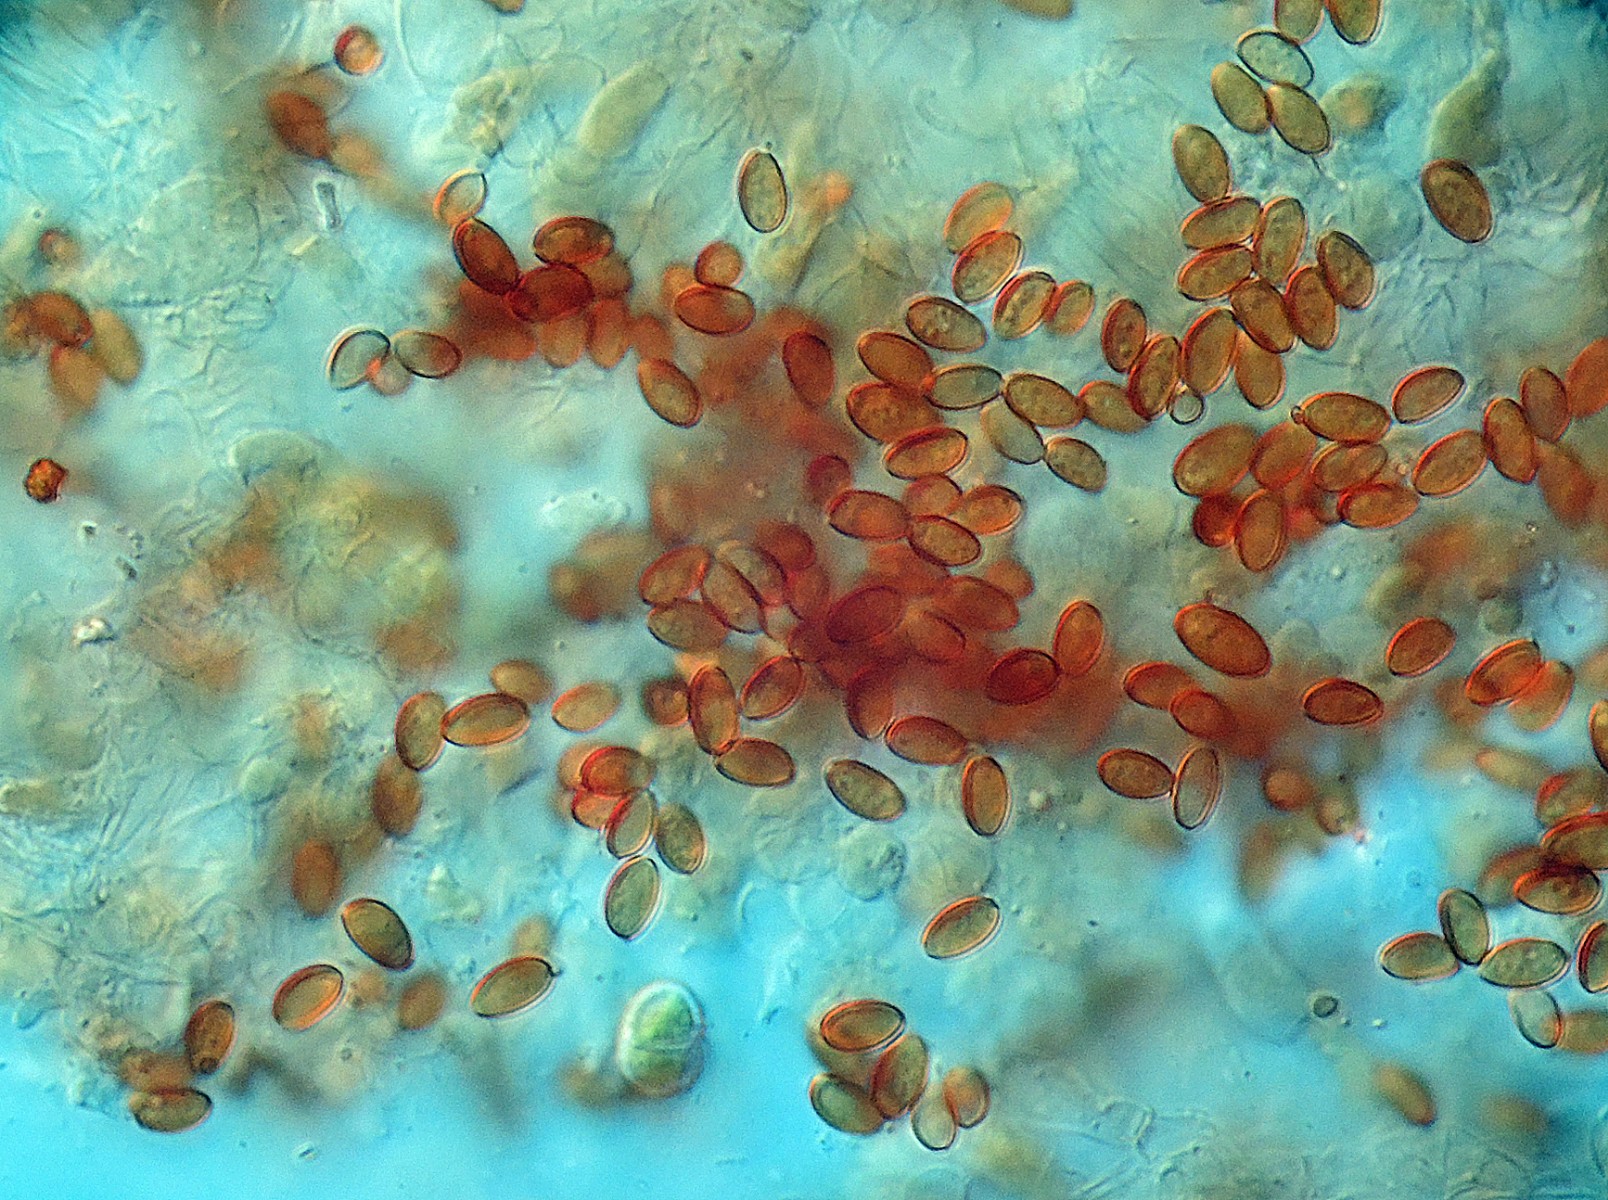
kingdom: Fungi
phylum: Basidiomycota
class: Agaricomycetes
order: Agaricales
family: Bolbitiaceae
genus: Pholiotina
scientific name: Pholiotina
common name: dansehat
